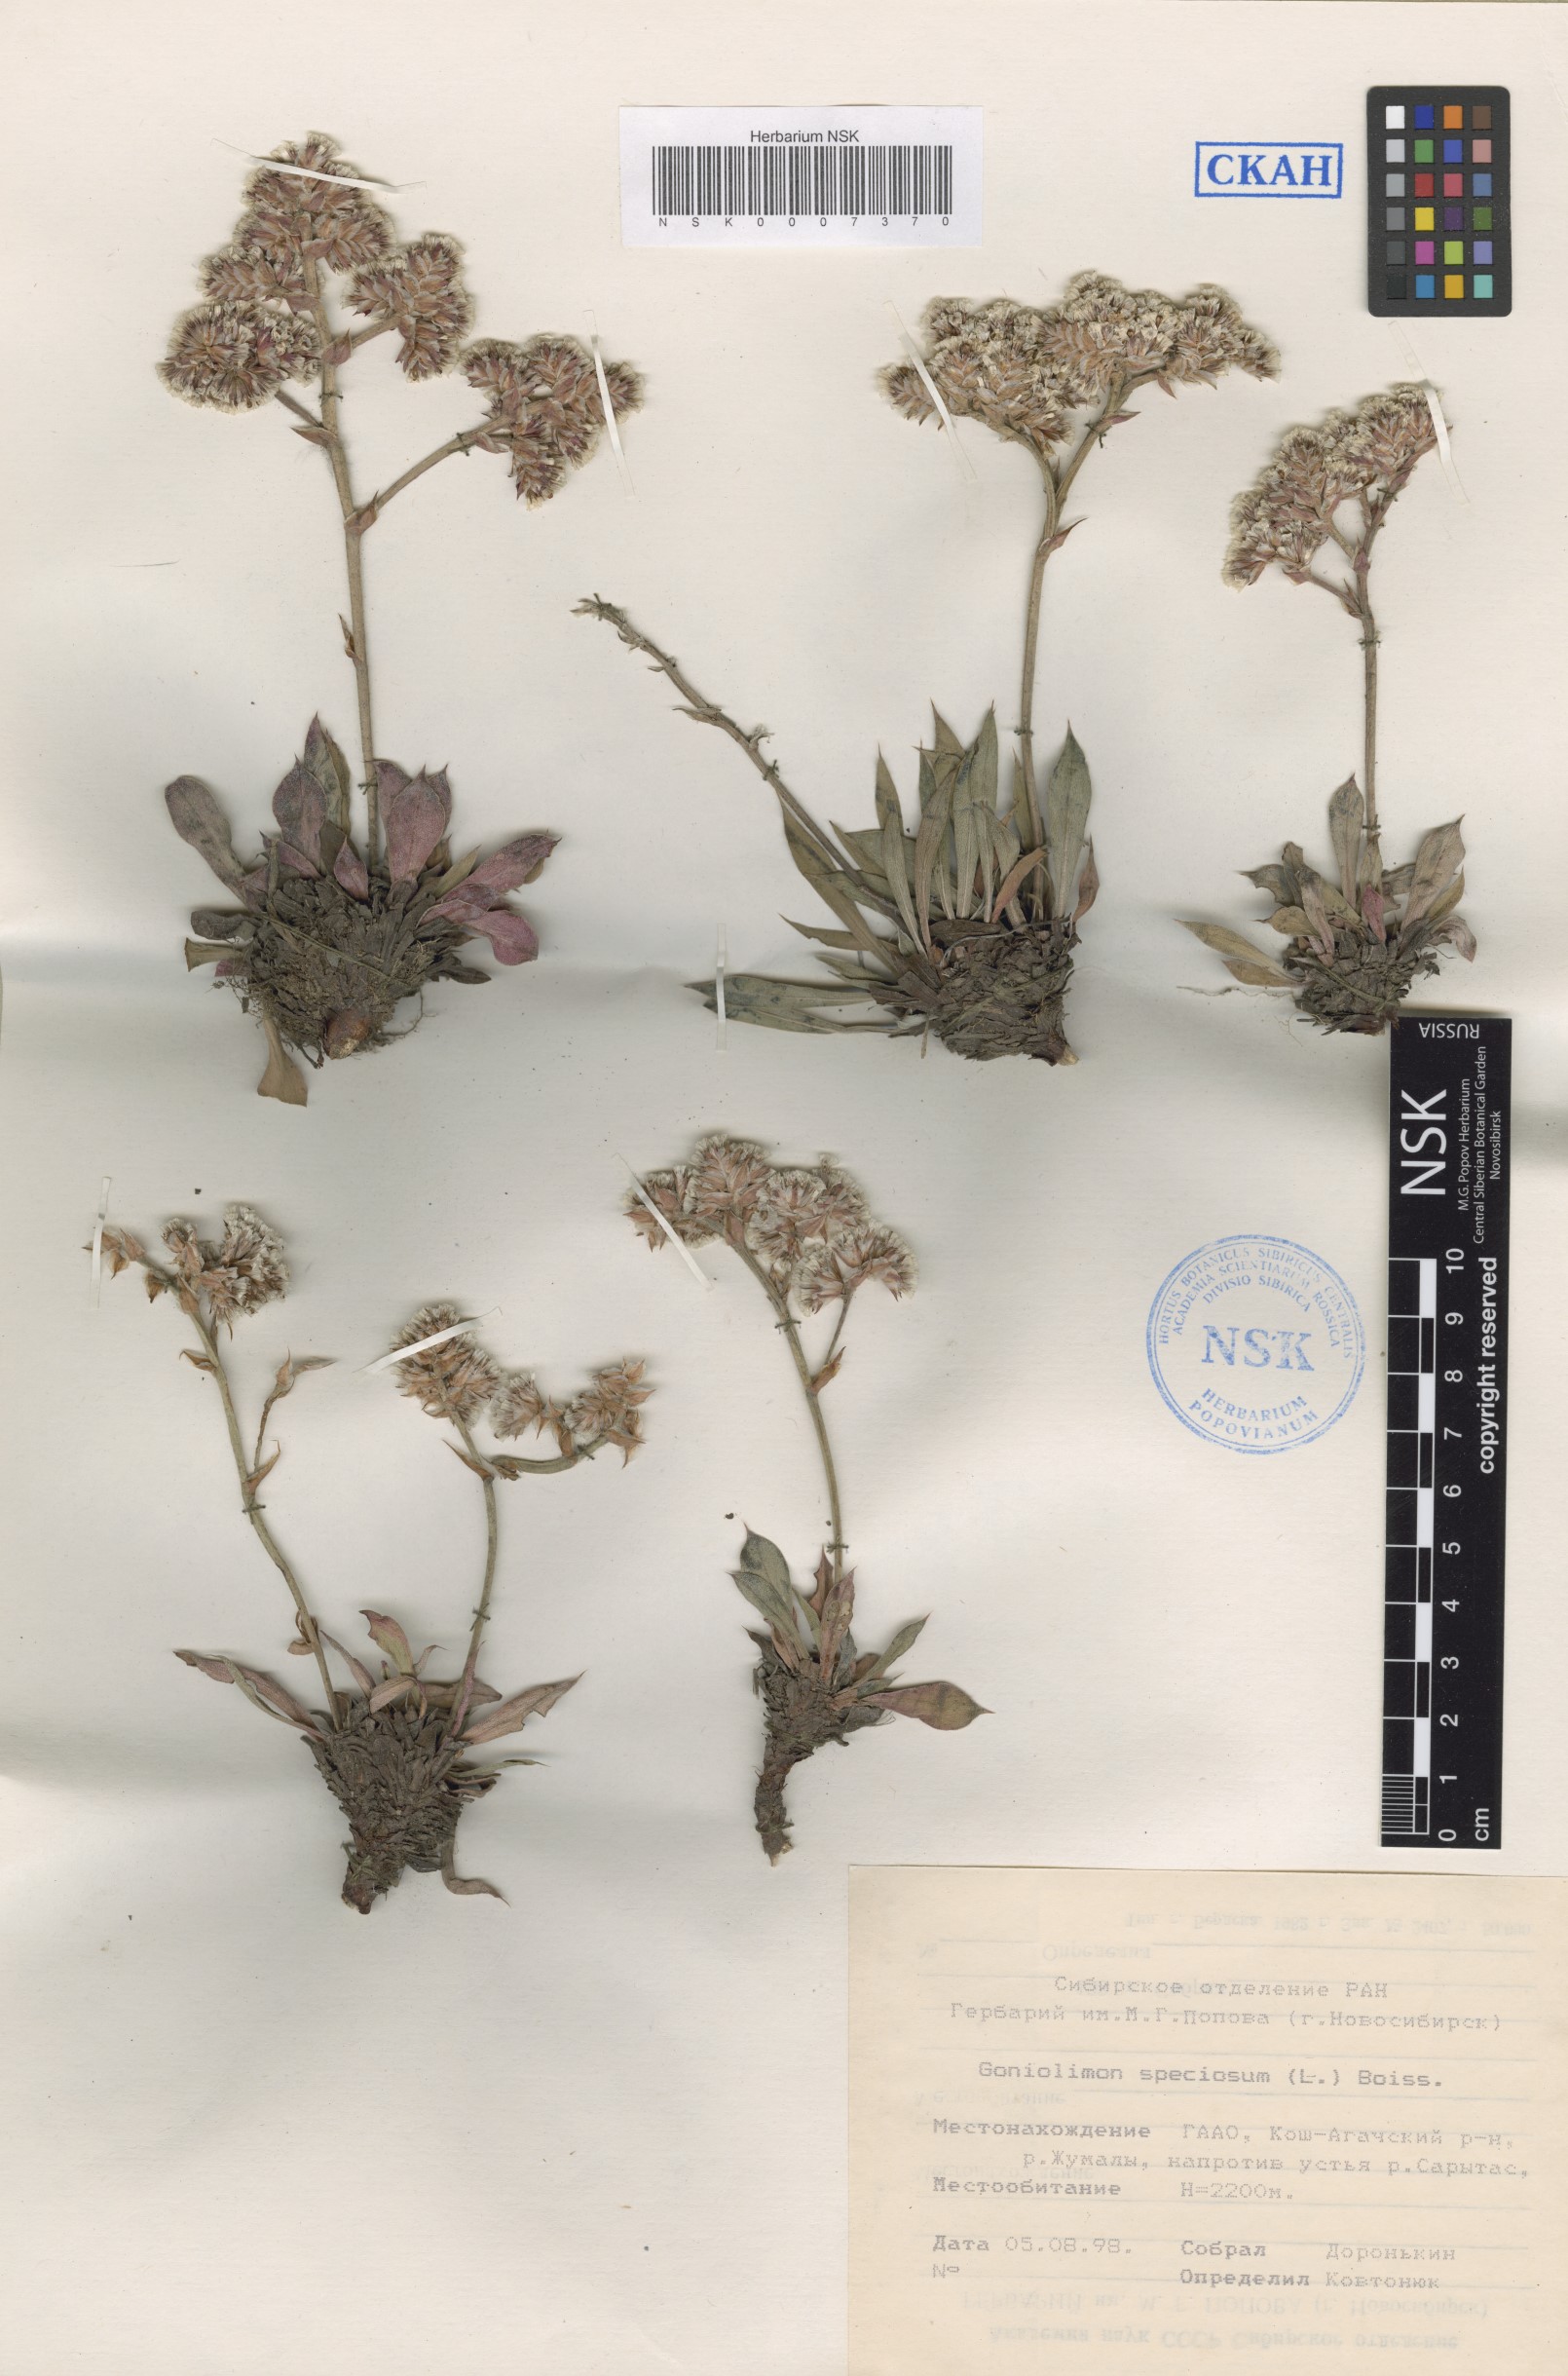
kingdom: Plantae
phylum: Tracheophyta
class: Magnoliopsida
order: Caryophyllales
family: Plumbaginaceae
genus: Goniolimon
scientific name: Goniolimon speciosum
